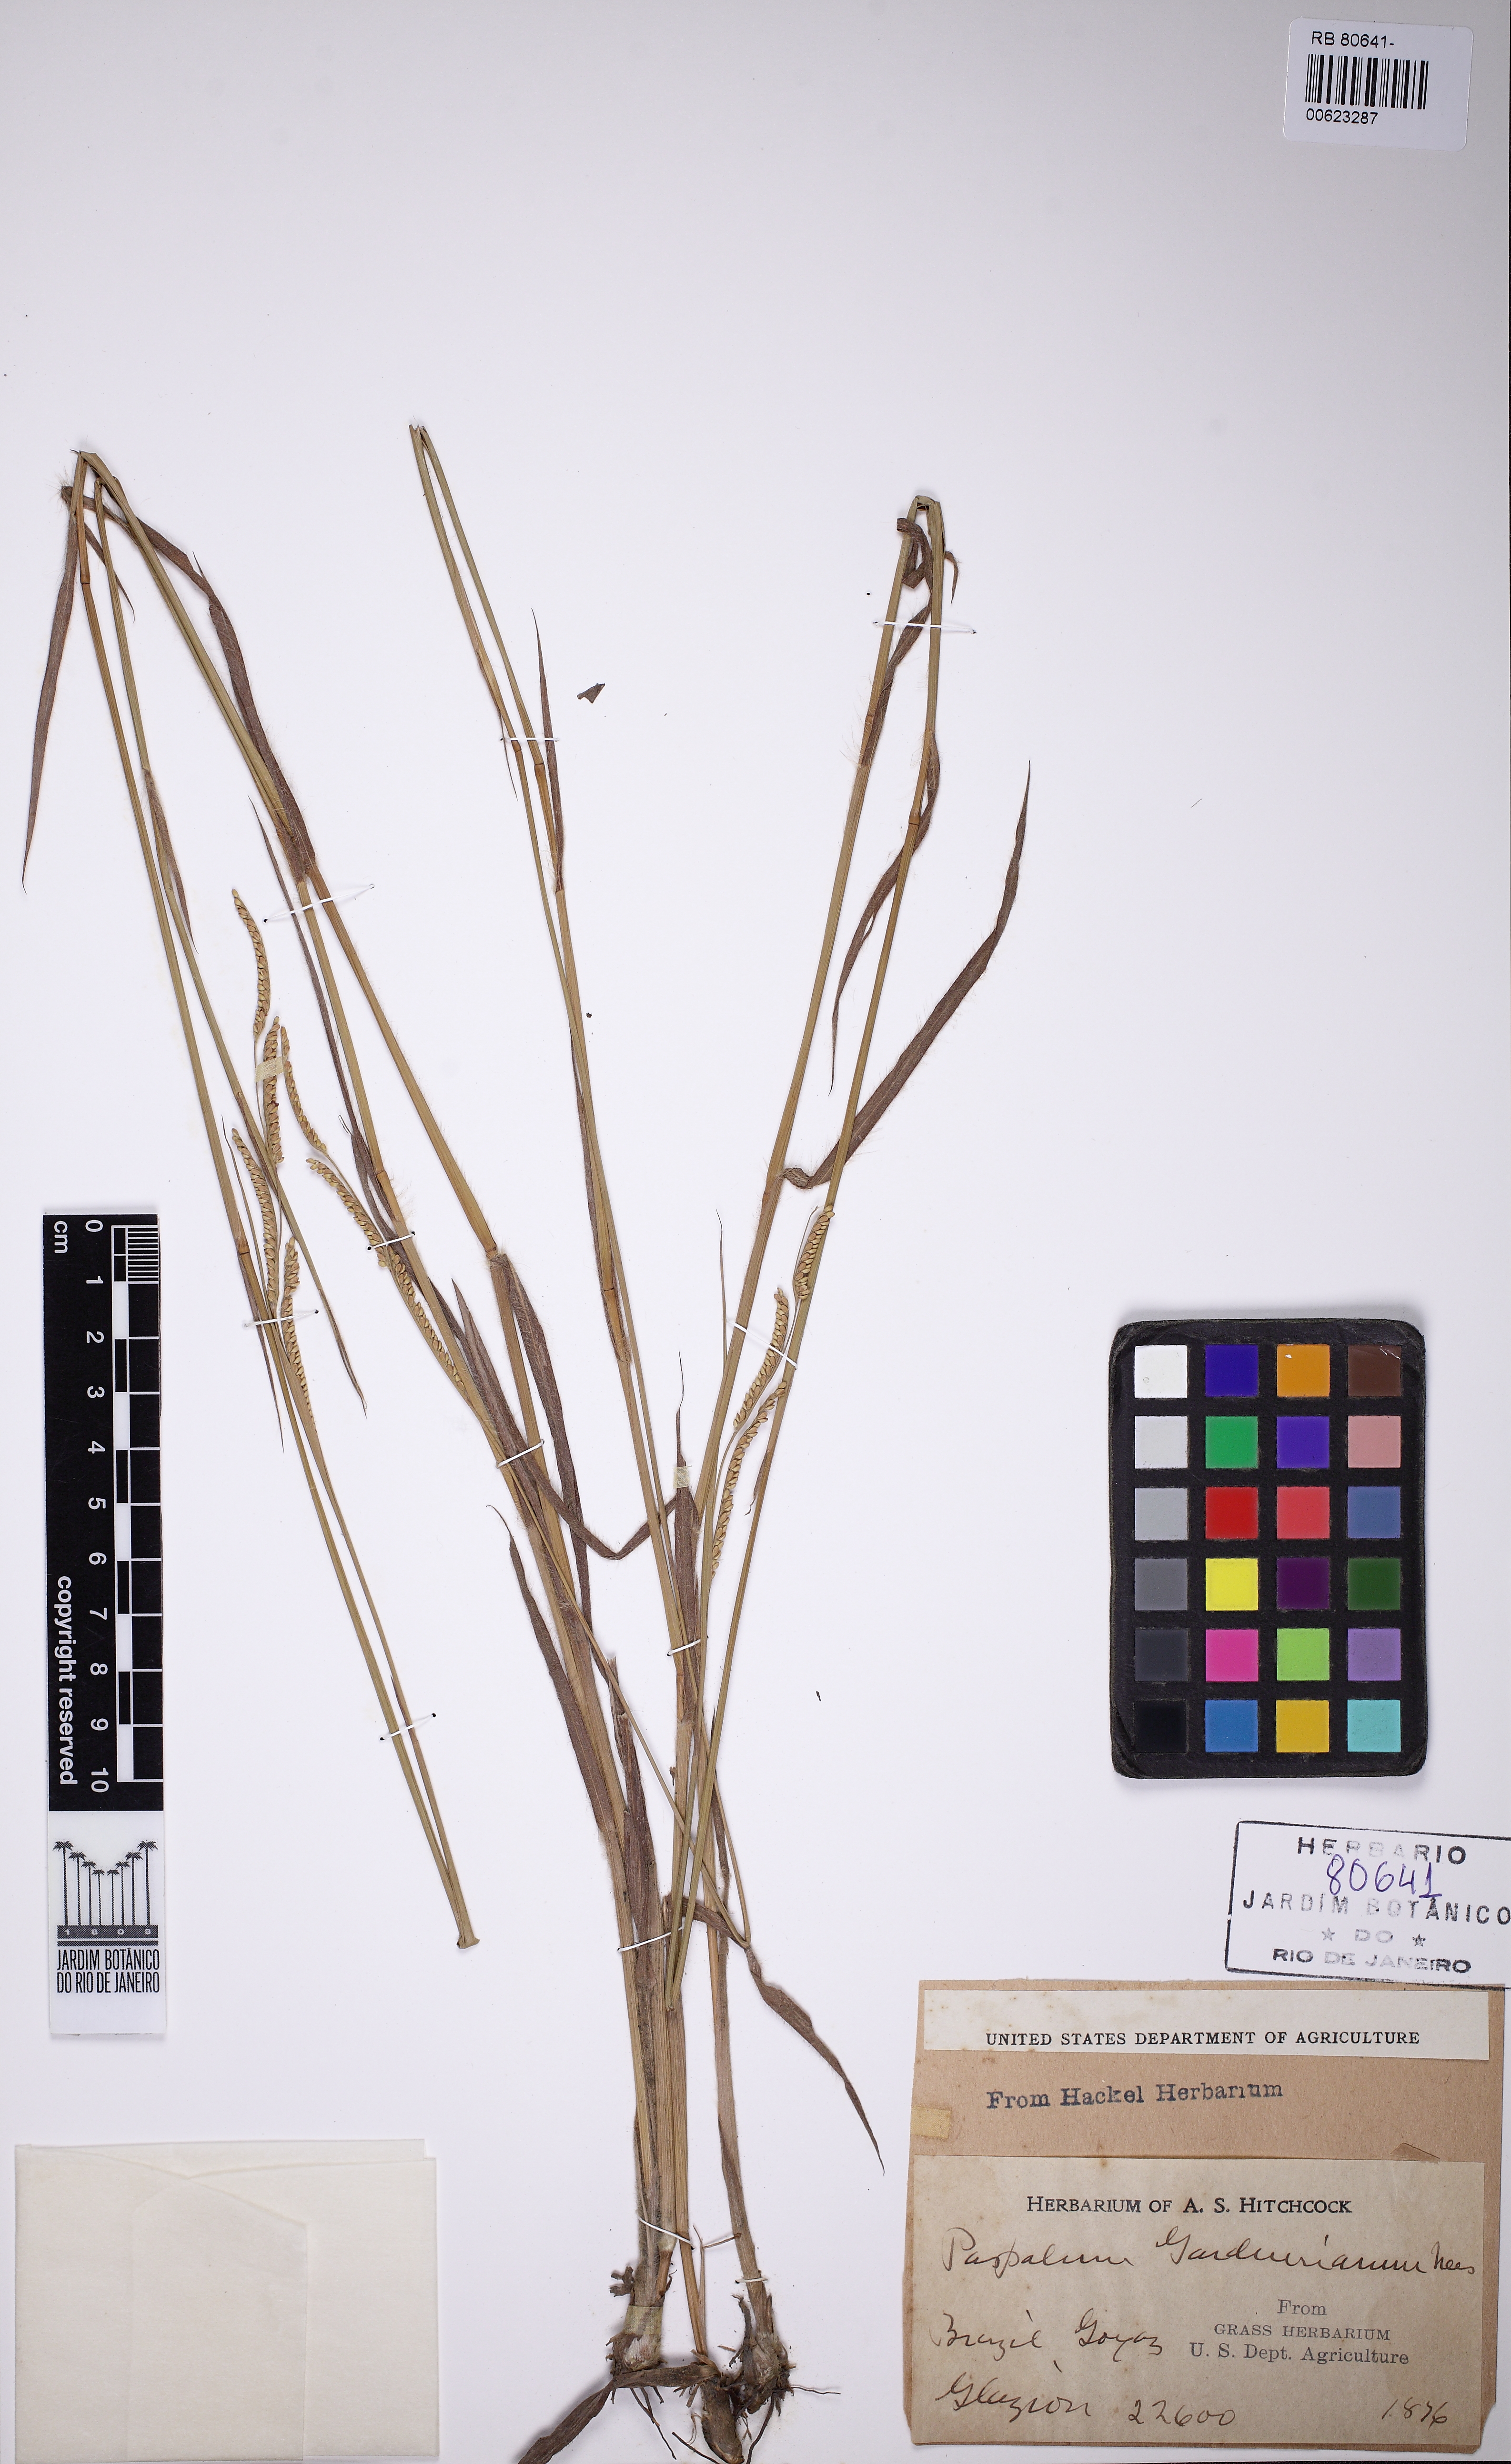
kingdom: Plantae
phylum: Tracheophyta
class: Liliopsida
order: Poales
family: Poaceae
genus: Paspalum
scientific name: Paspalum gardnerianum
